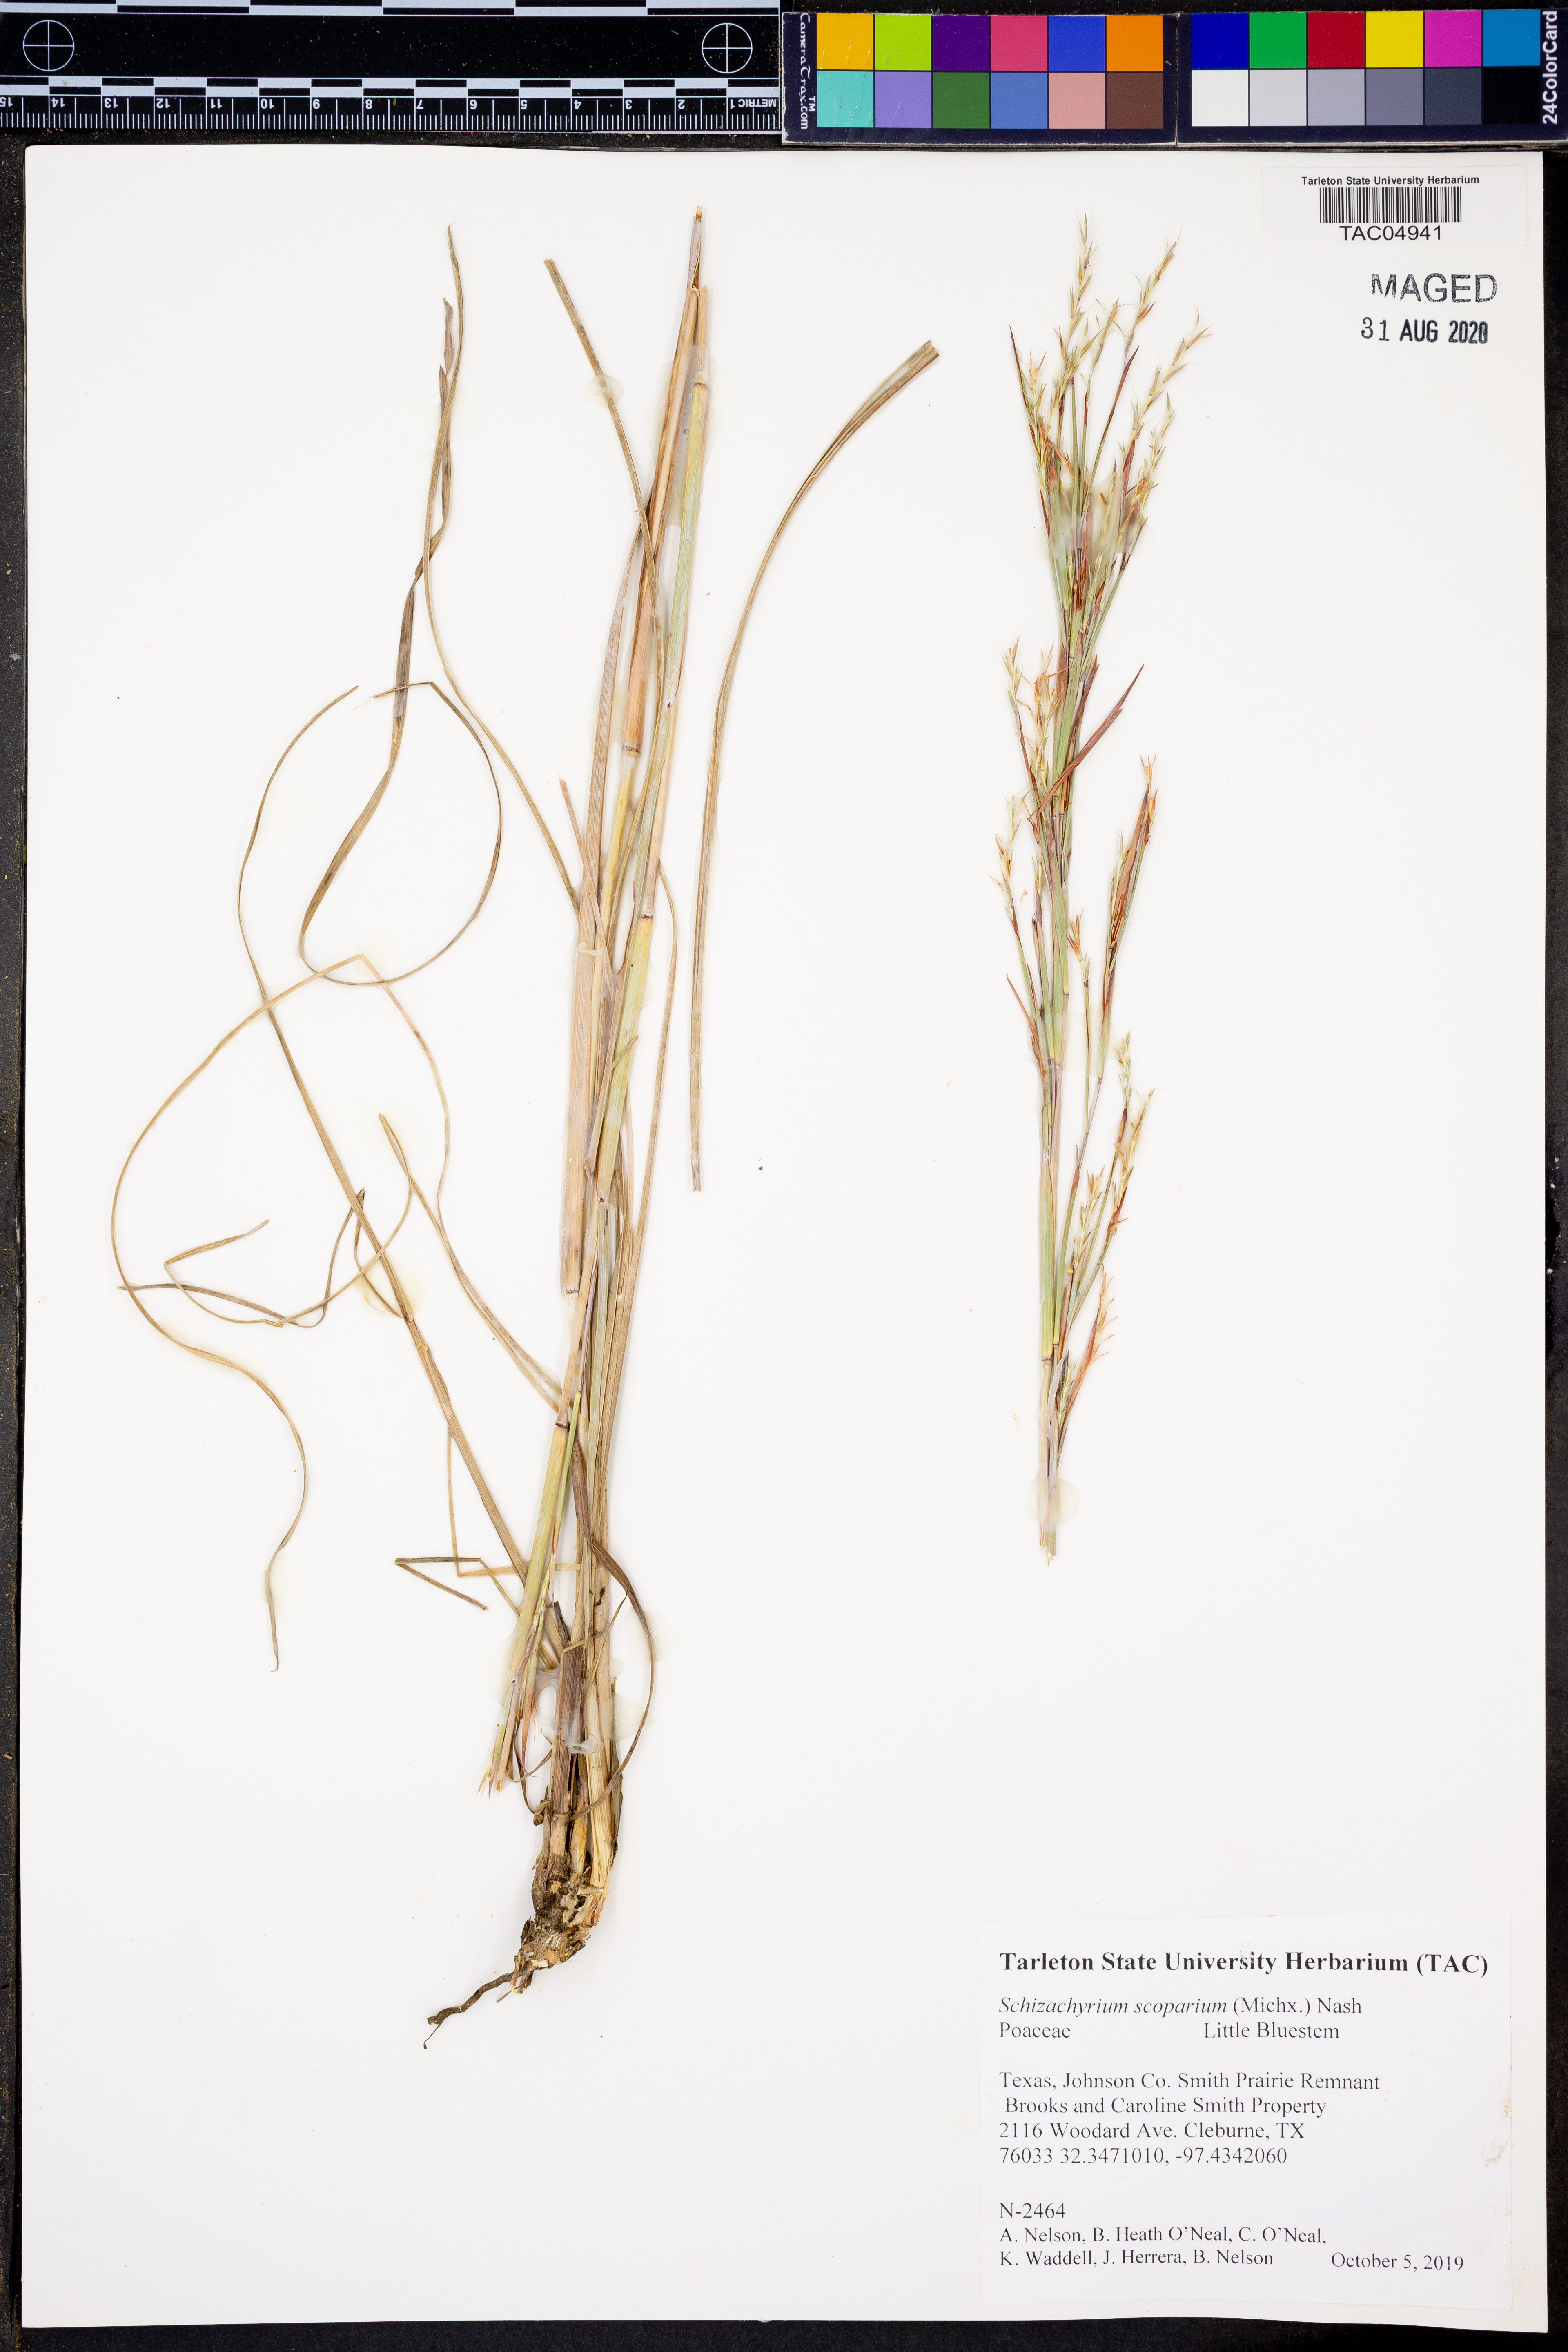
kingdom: Plantae
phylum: Tracheophyta
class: Liliopsida
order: Poales
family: Poaceae
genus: Schizachyrium
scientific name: Schizachyrium scoparium
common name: Little bluestem
